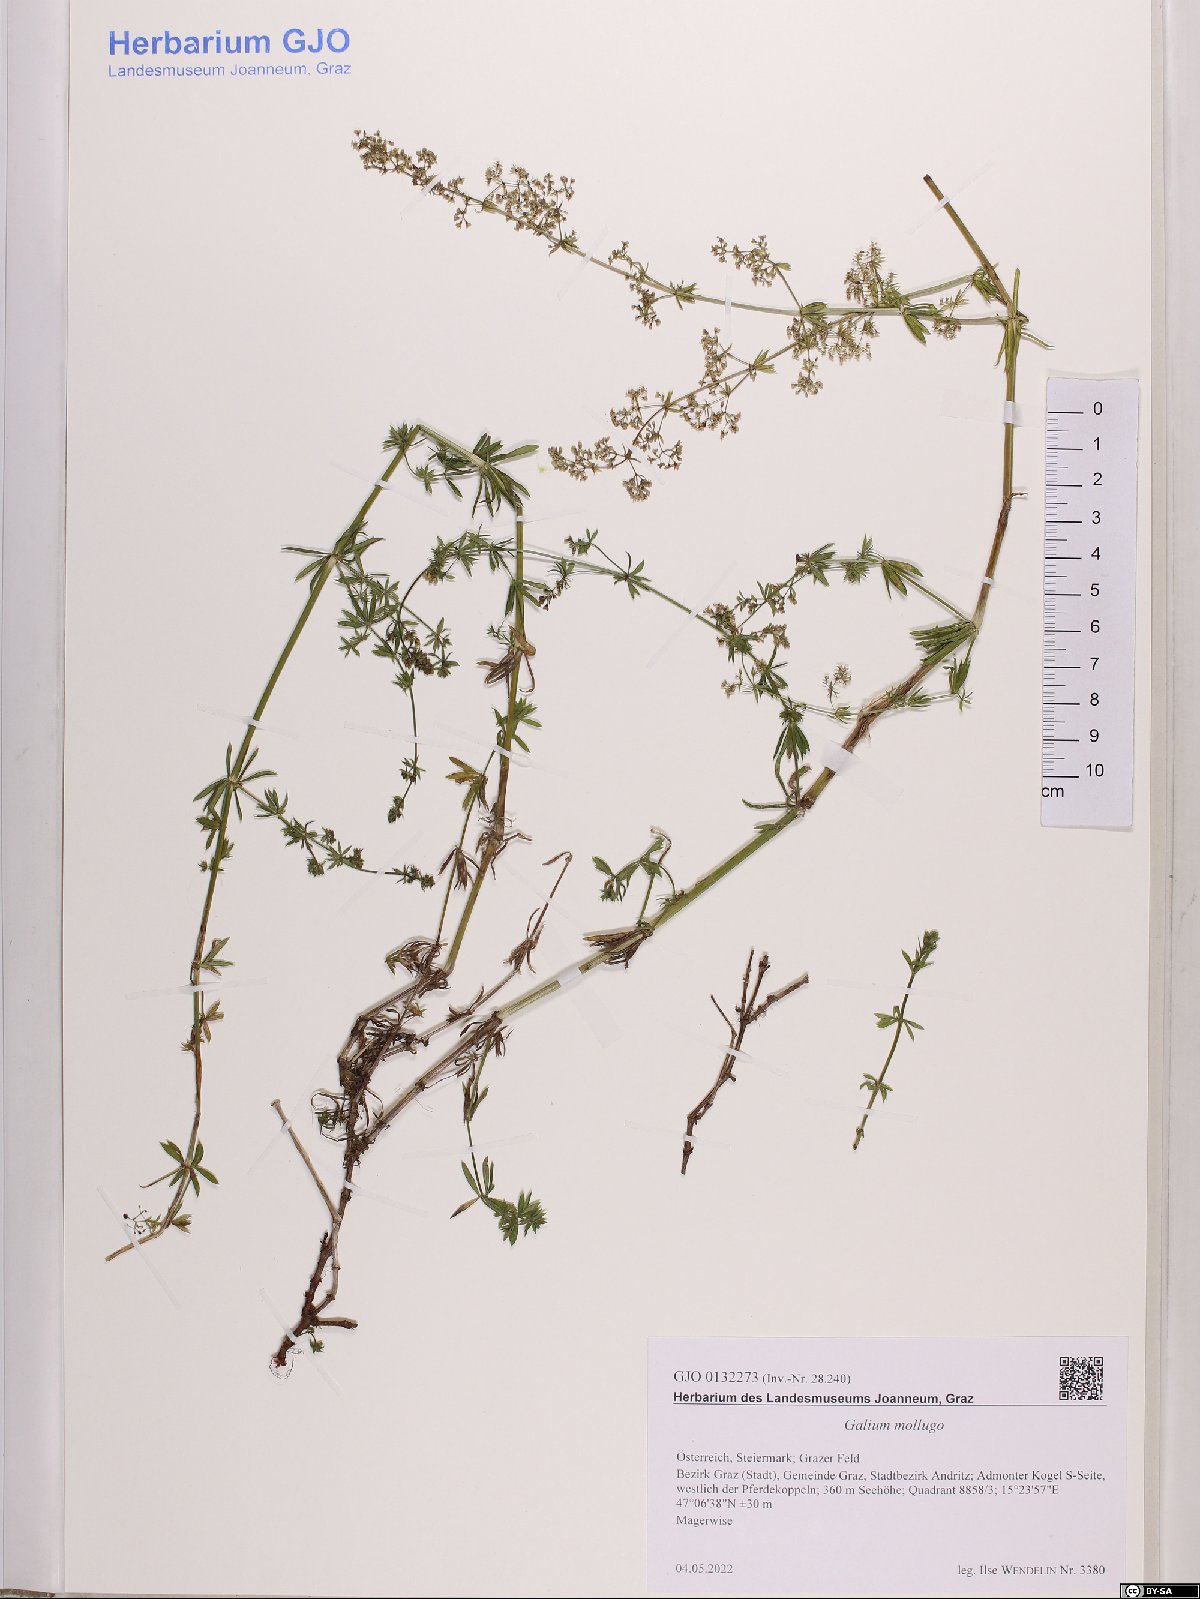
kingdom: Plantae
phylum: Tracheophyta
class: Magnoliopsida
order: Gentianales
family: Rubiaceae
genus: Galium
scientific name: Galium mollugo
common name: Hedge bedstraw
